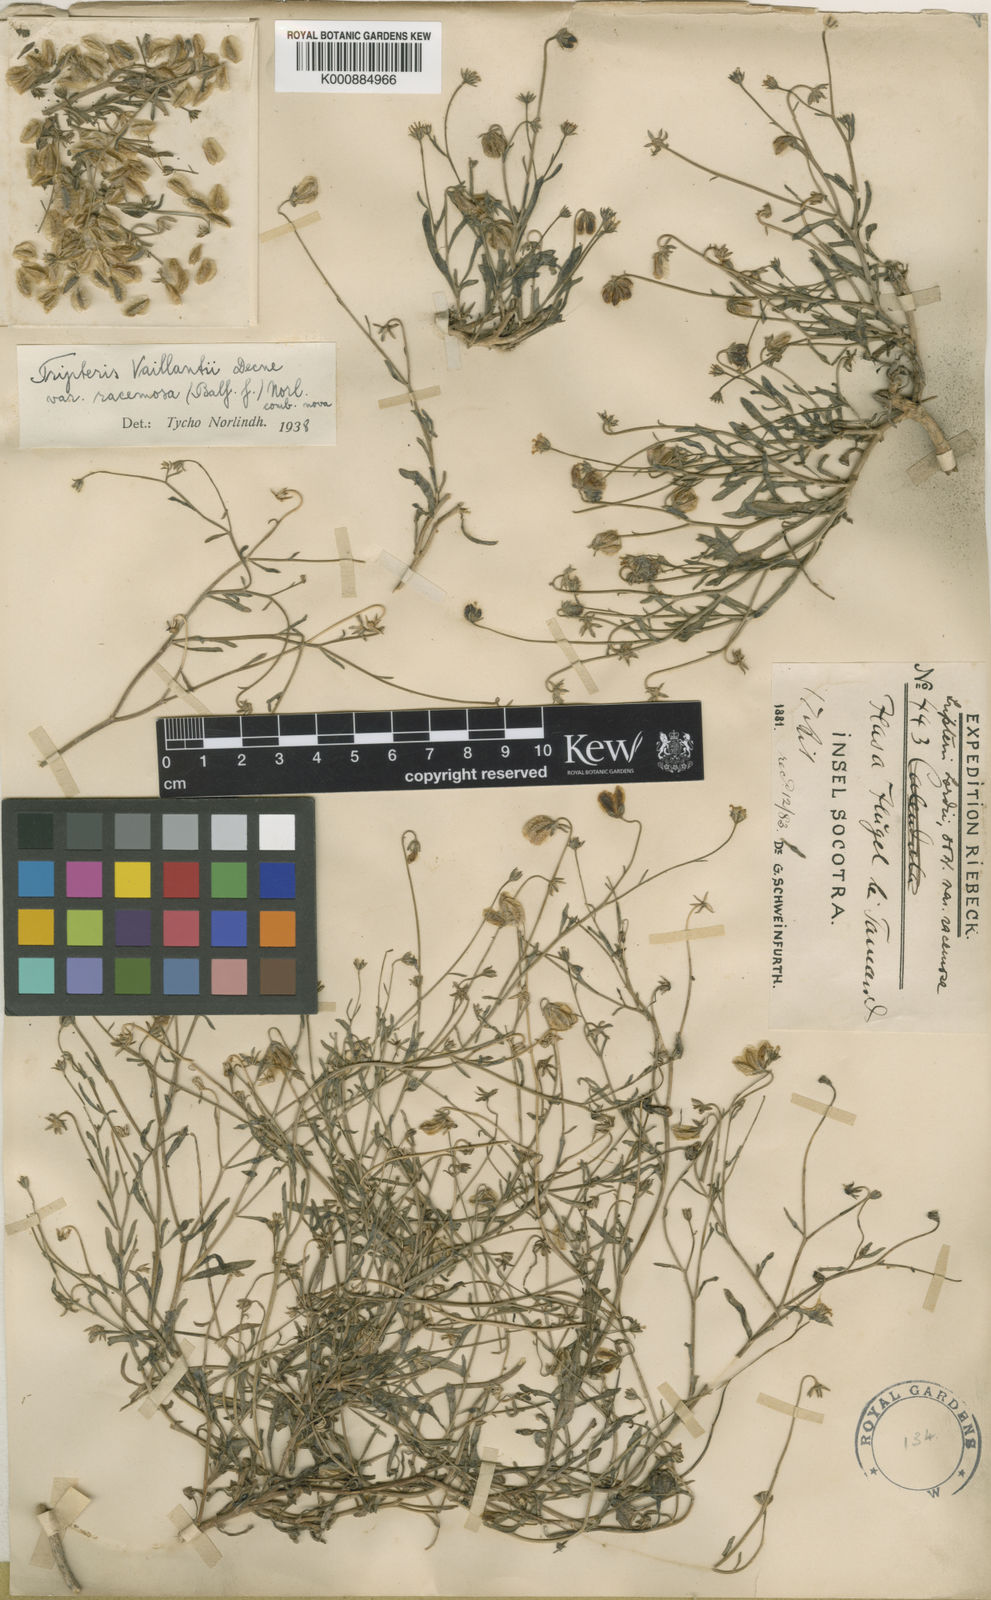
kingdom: Plantae
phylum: Tracheophyta
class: Magnoliopsida
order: Asterales
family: Asteraceae
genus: Osteospermum
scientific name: Osteospermum vaillantii
